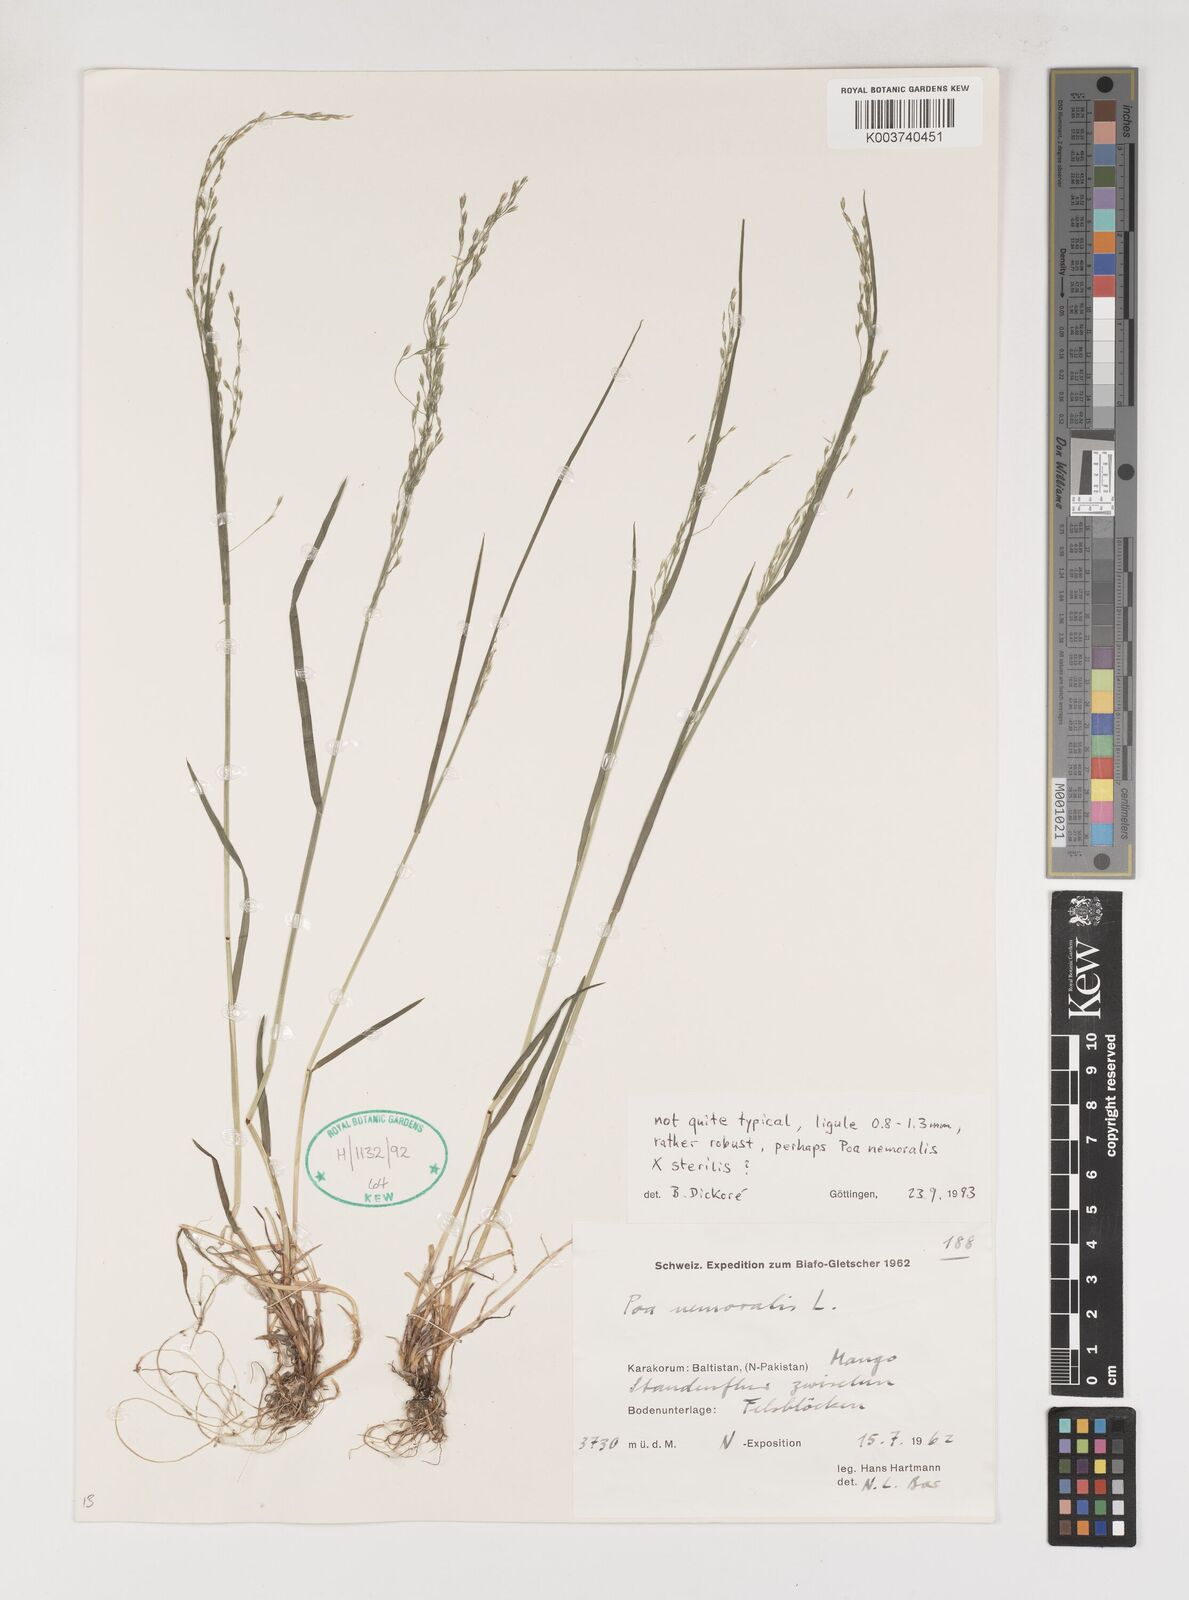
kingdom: Plantae
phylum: Tracheophyta
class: Liliopsida
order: Poales
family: Poaceae
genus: Poa
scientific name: Poa nemoralis
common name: Wood bluegrass
